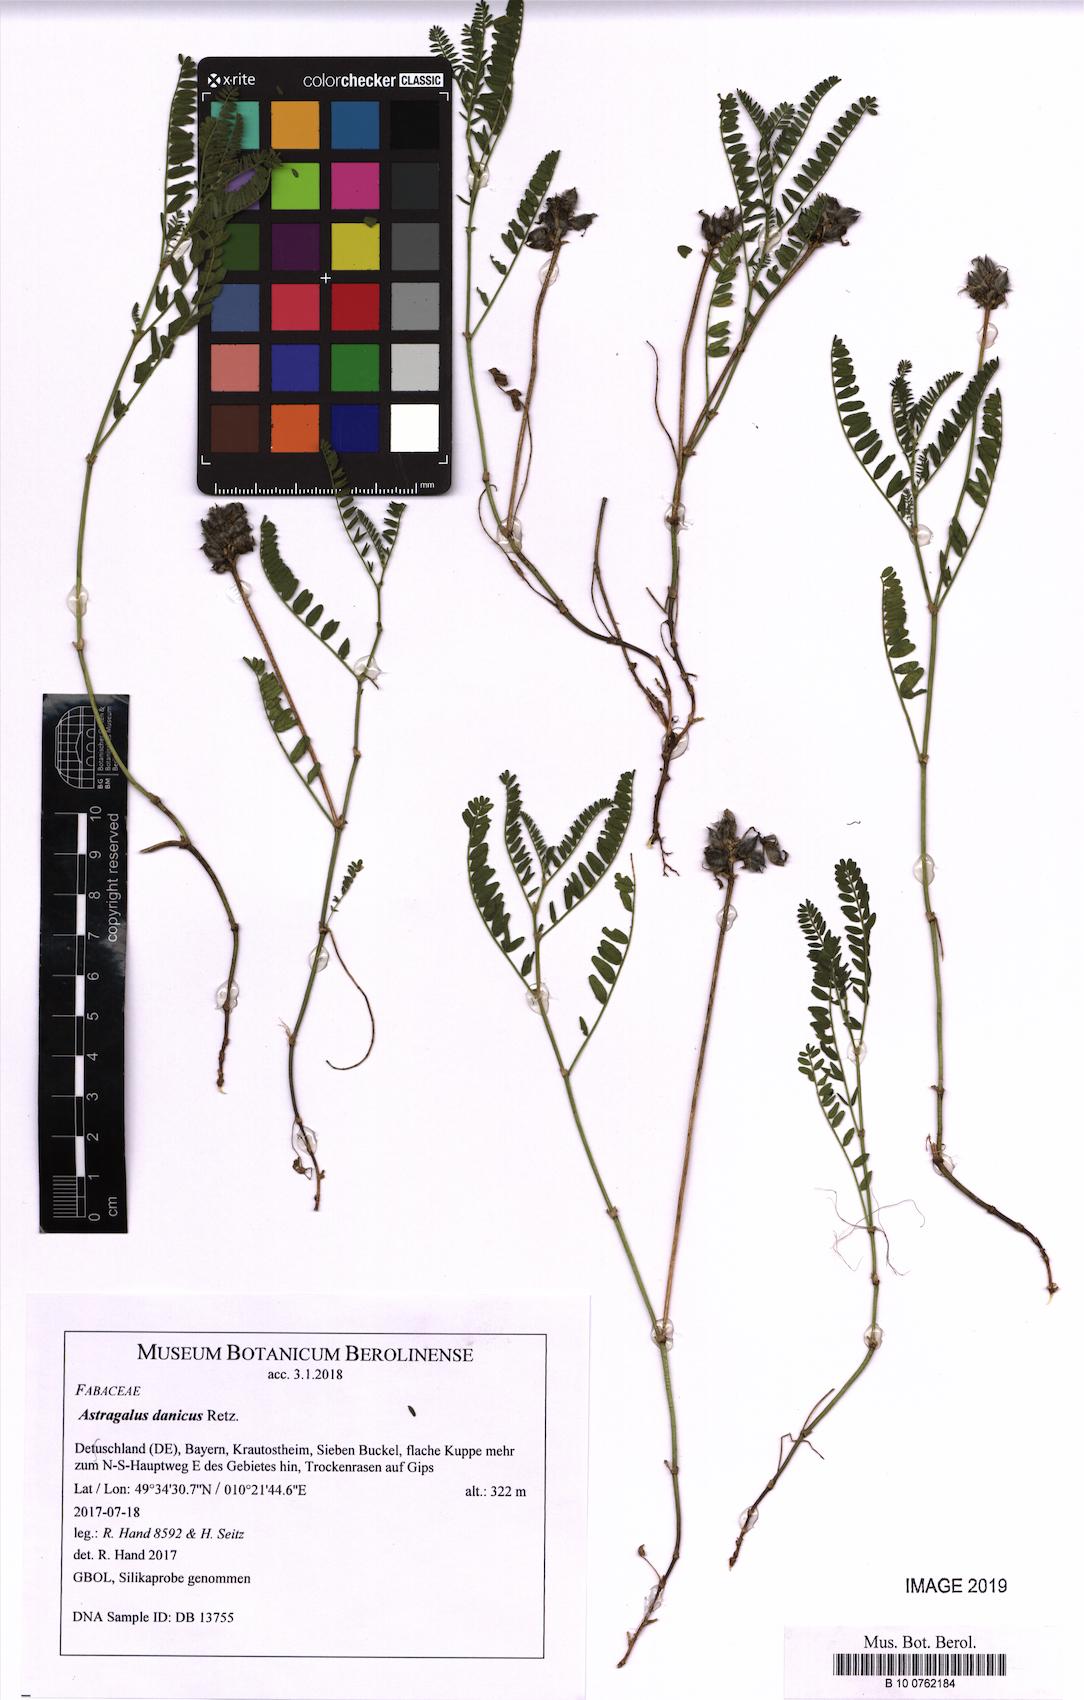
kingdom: Plantae
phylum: Tracheophyta
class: Magnoliopsida
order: Fabales
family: Fabaceae
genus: Astragalus
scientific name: Astragalus danicus
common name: Purple milk-vetch
